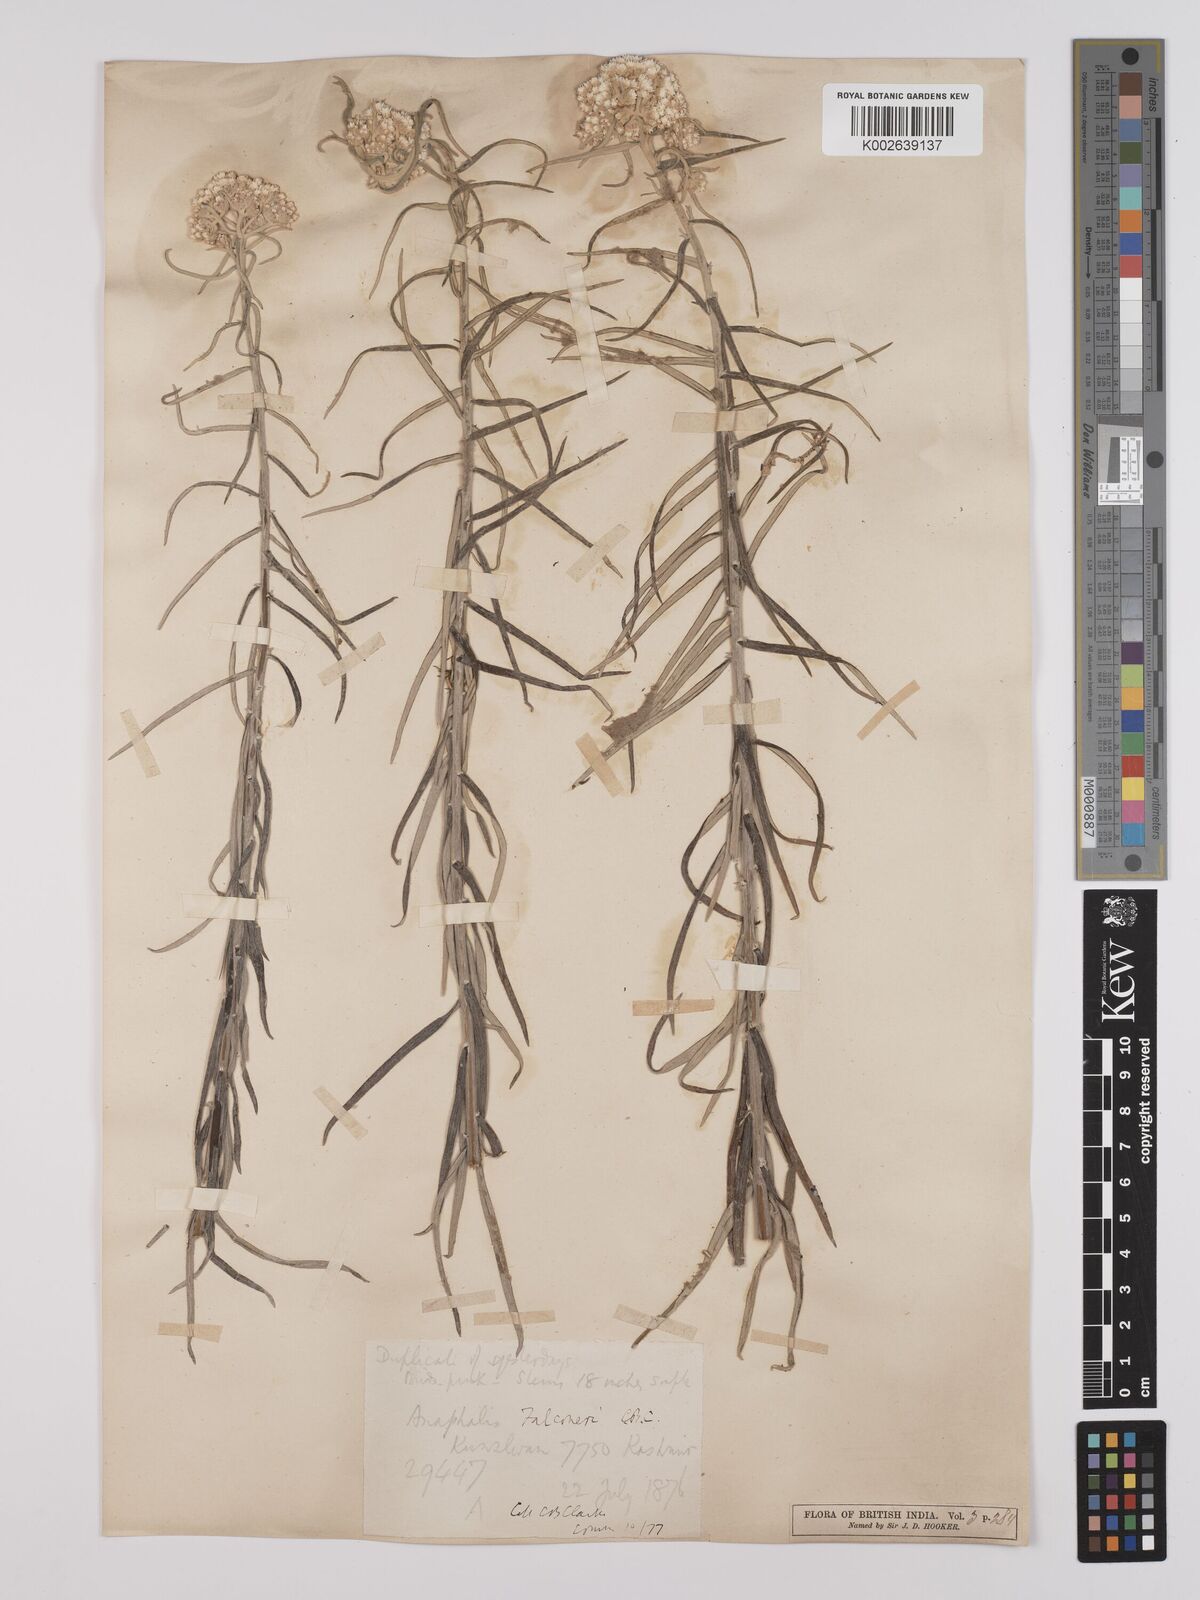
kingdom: Plantae
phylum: Tracheophyta
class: Magnoliopsida
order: Asterales
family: Asteraceae
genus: Anaphalis
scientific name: Anaphalis contorta
